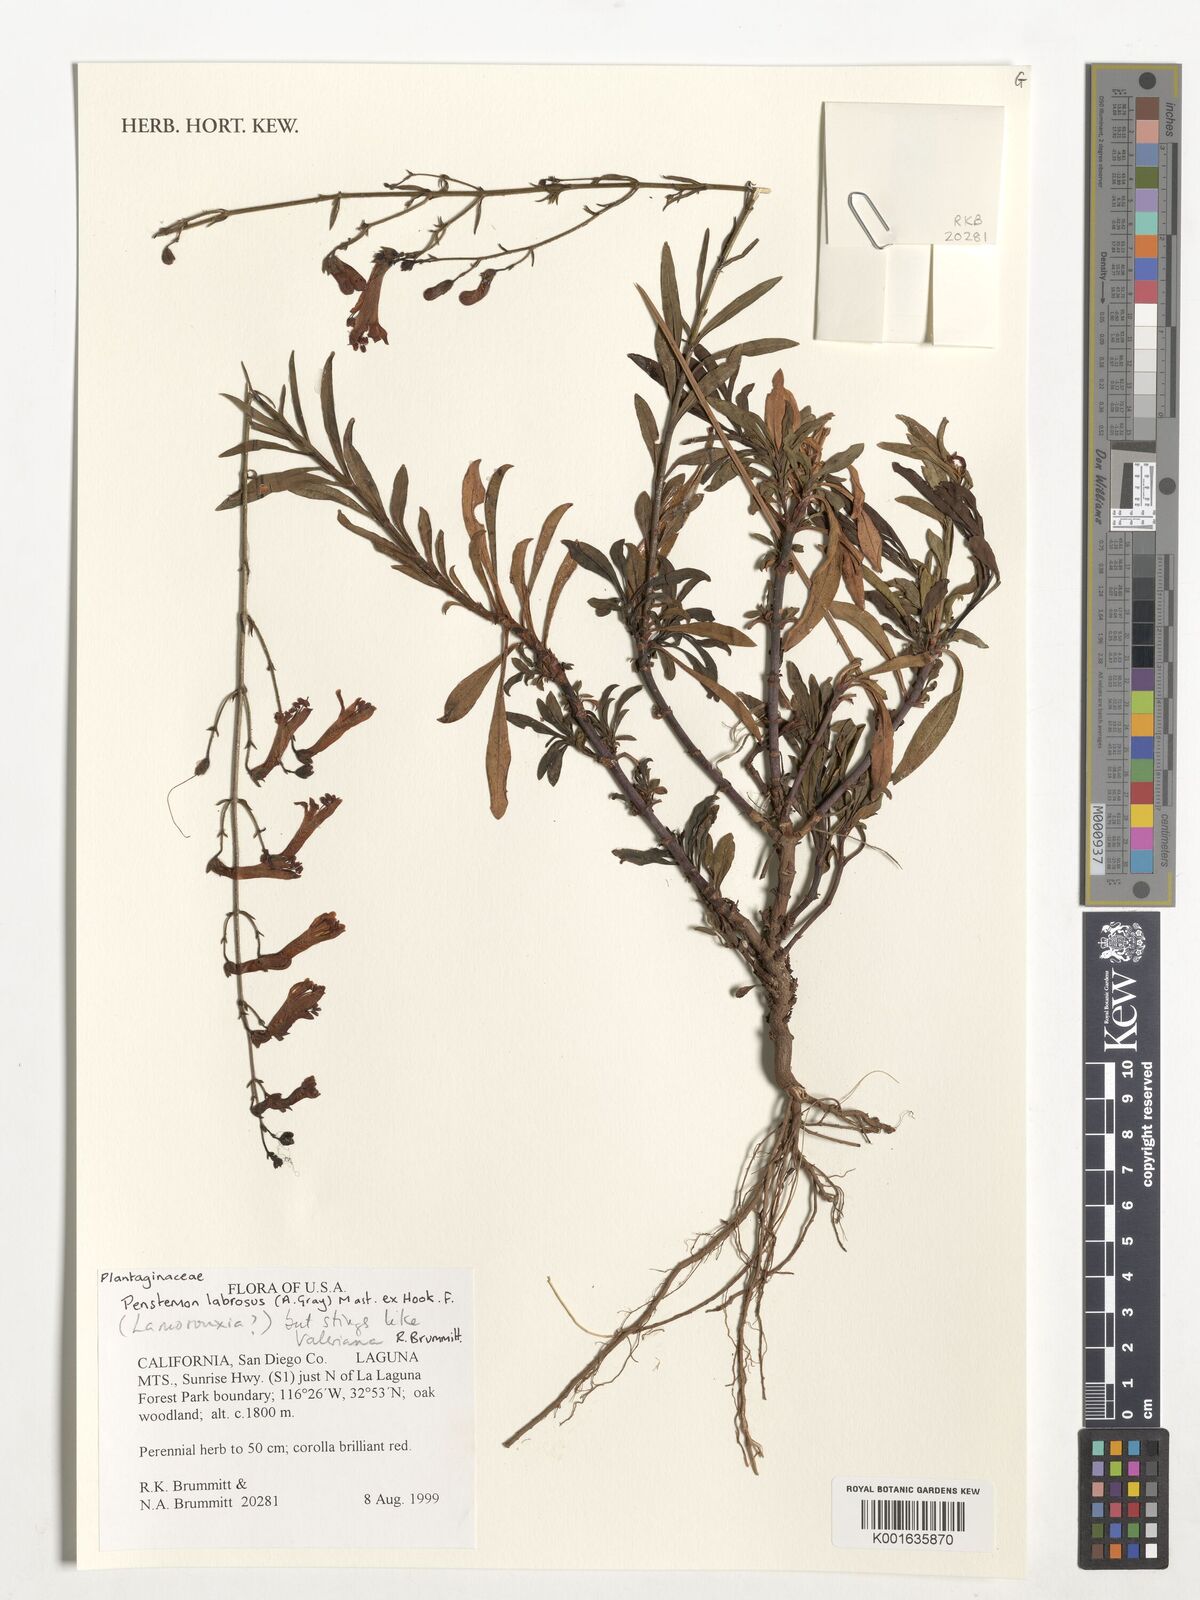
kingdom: Plantae
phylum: Tracheophyta
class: Magnoliopsida
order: Lamiales
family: Plantaginaceae
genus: Penstemon
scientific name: Penstemon labrosus
